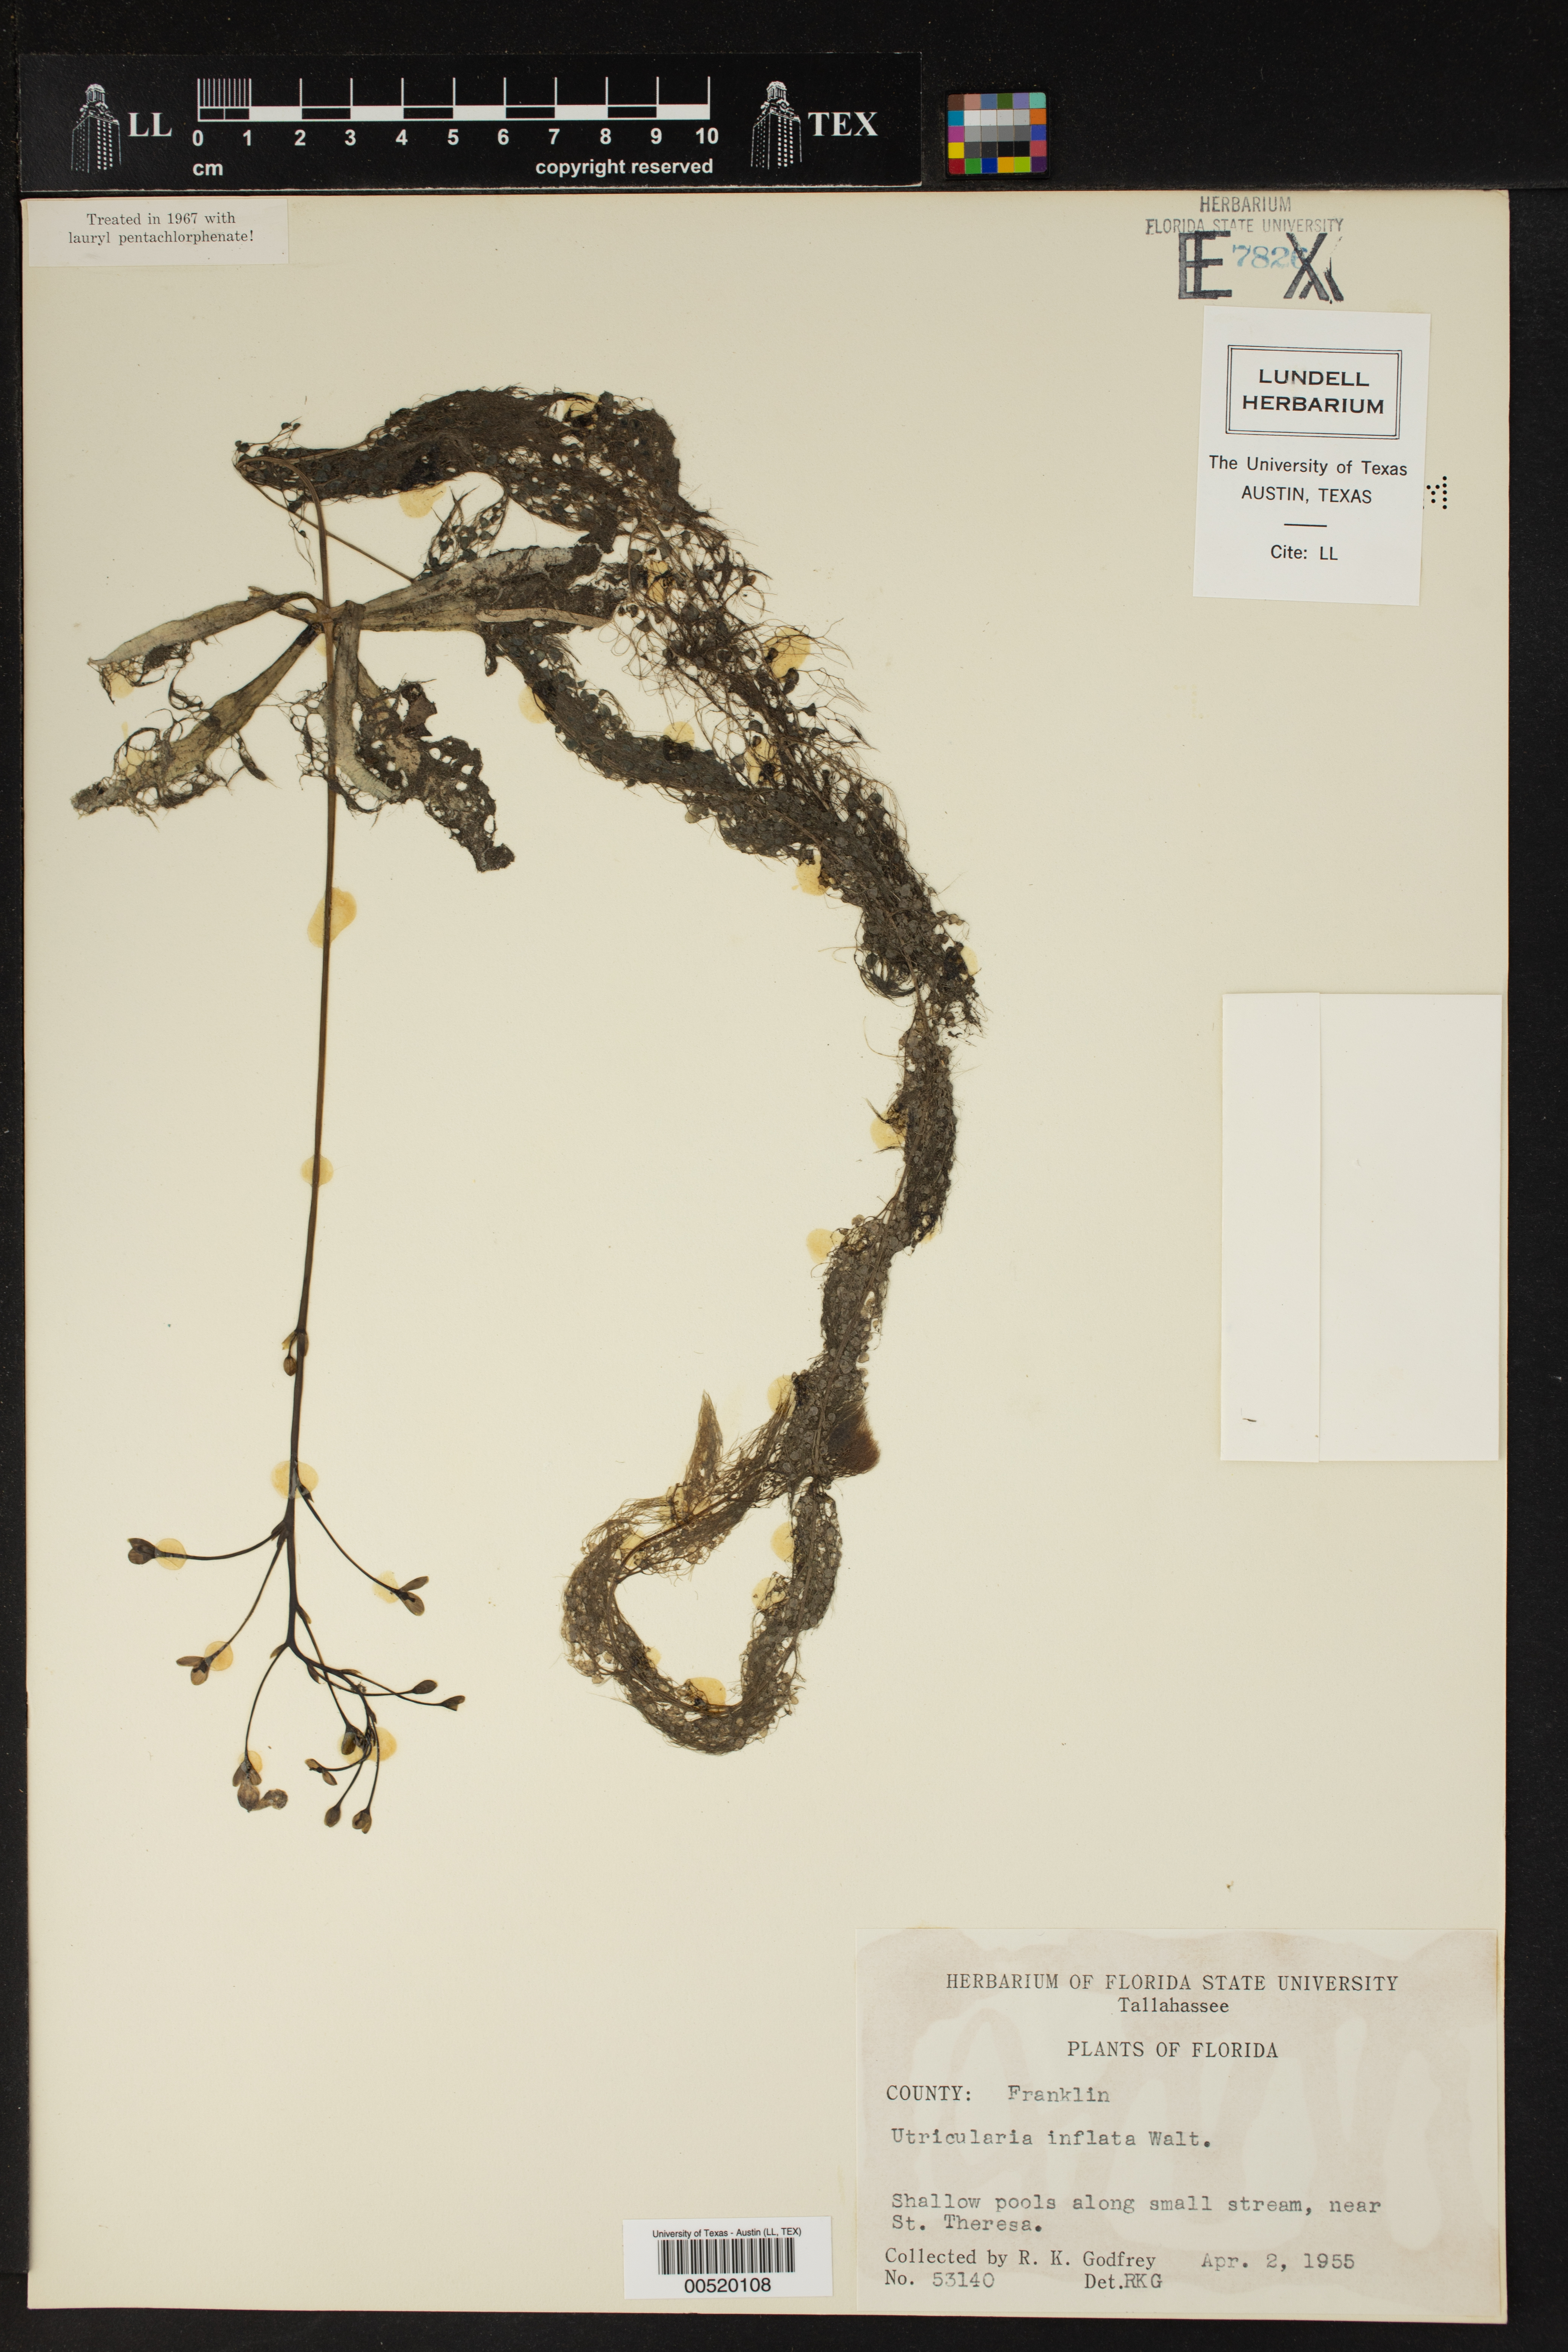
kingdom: Plantae
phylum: Tracheophyta
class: Magnoliopsida
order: Lamiales
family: Lentibulariaceae
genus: Utricularia
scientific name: Utricularia inflata
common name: Floating bladderwort
